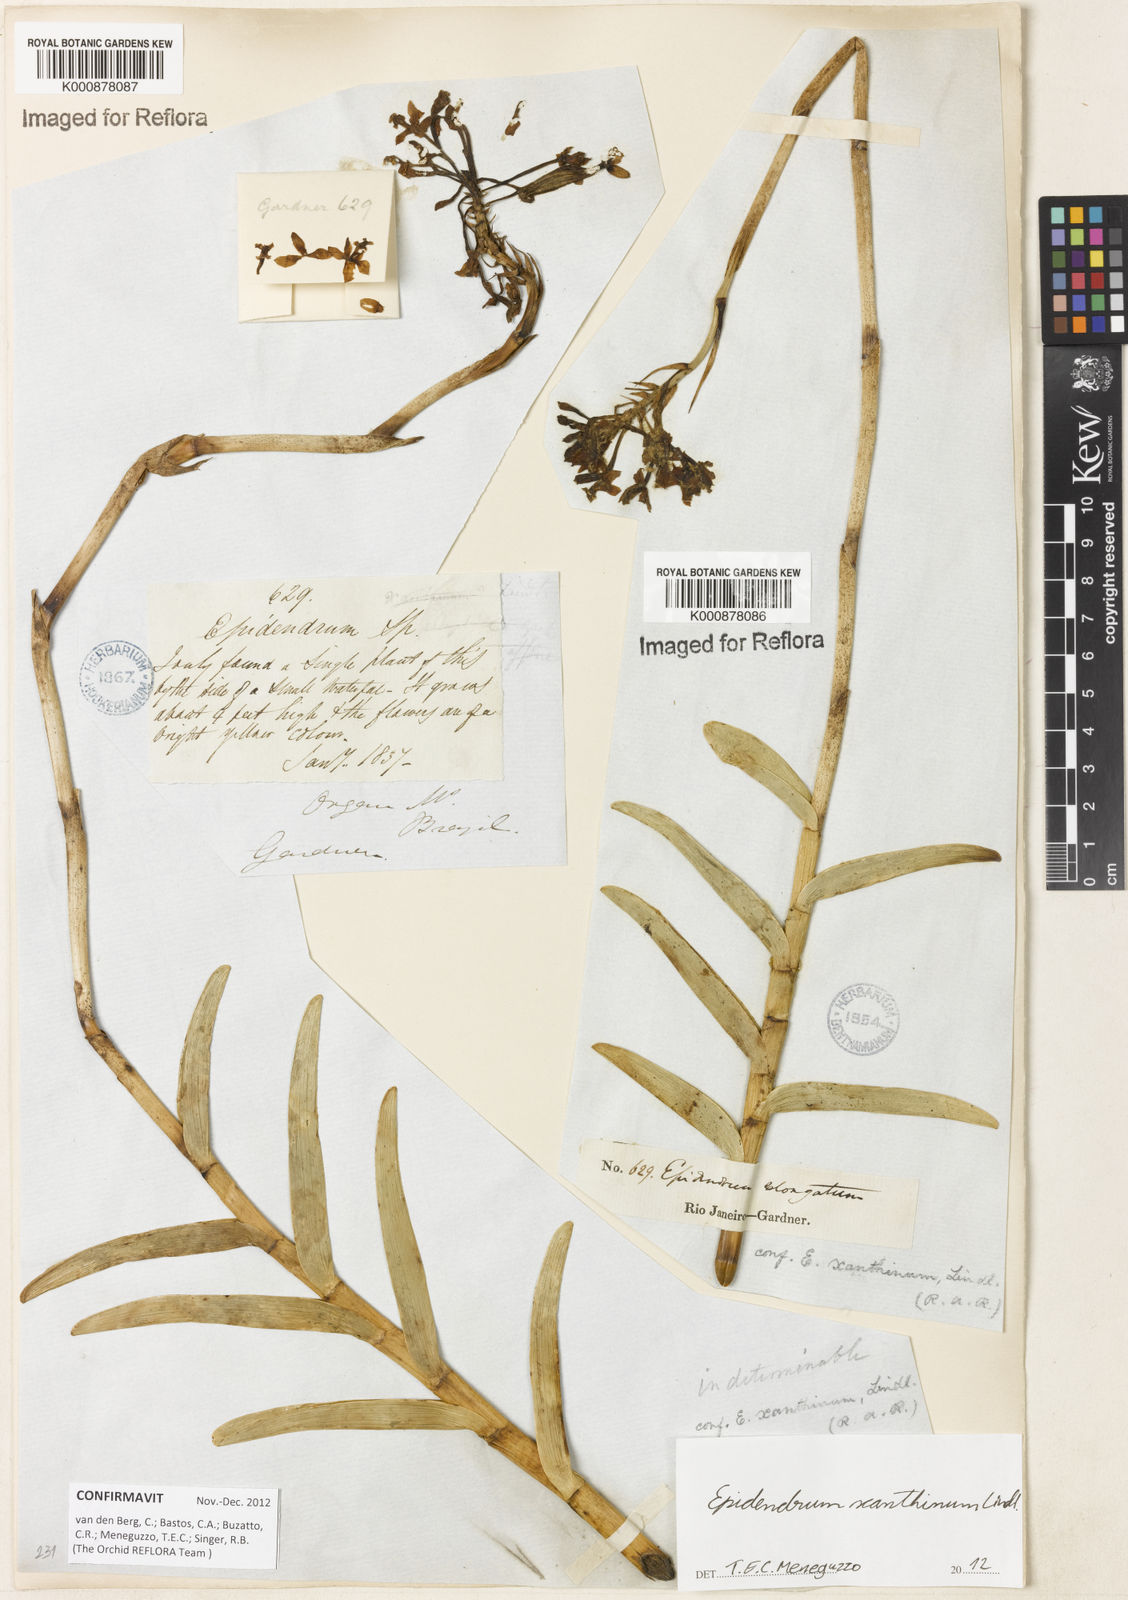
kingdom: Plantae
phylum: Tracheophyta
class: Liliopsida
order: Asparagales
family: Orchidaceae
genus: Epidendrum
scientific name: Epidendrum xanthinum
